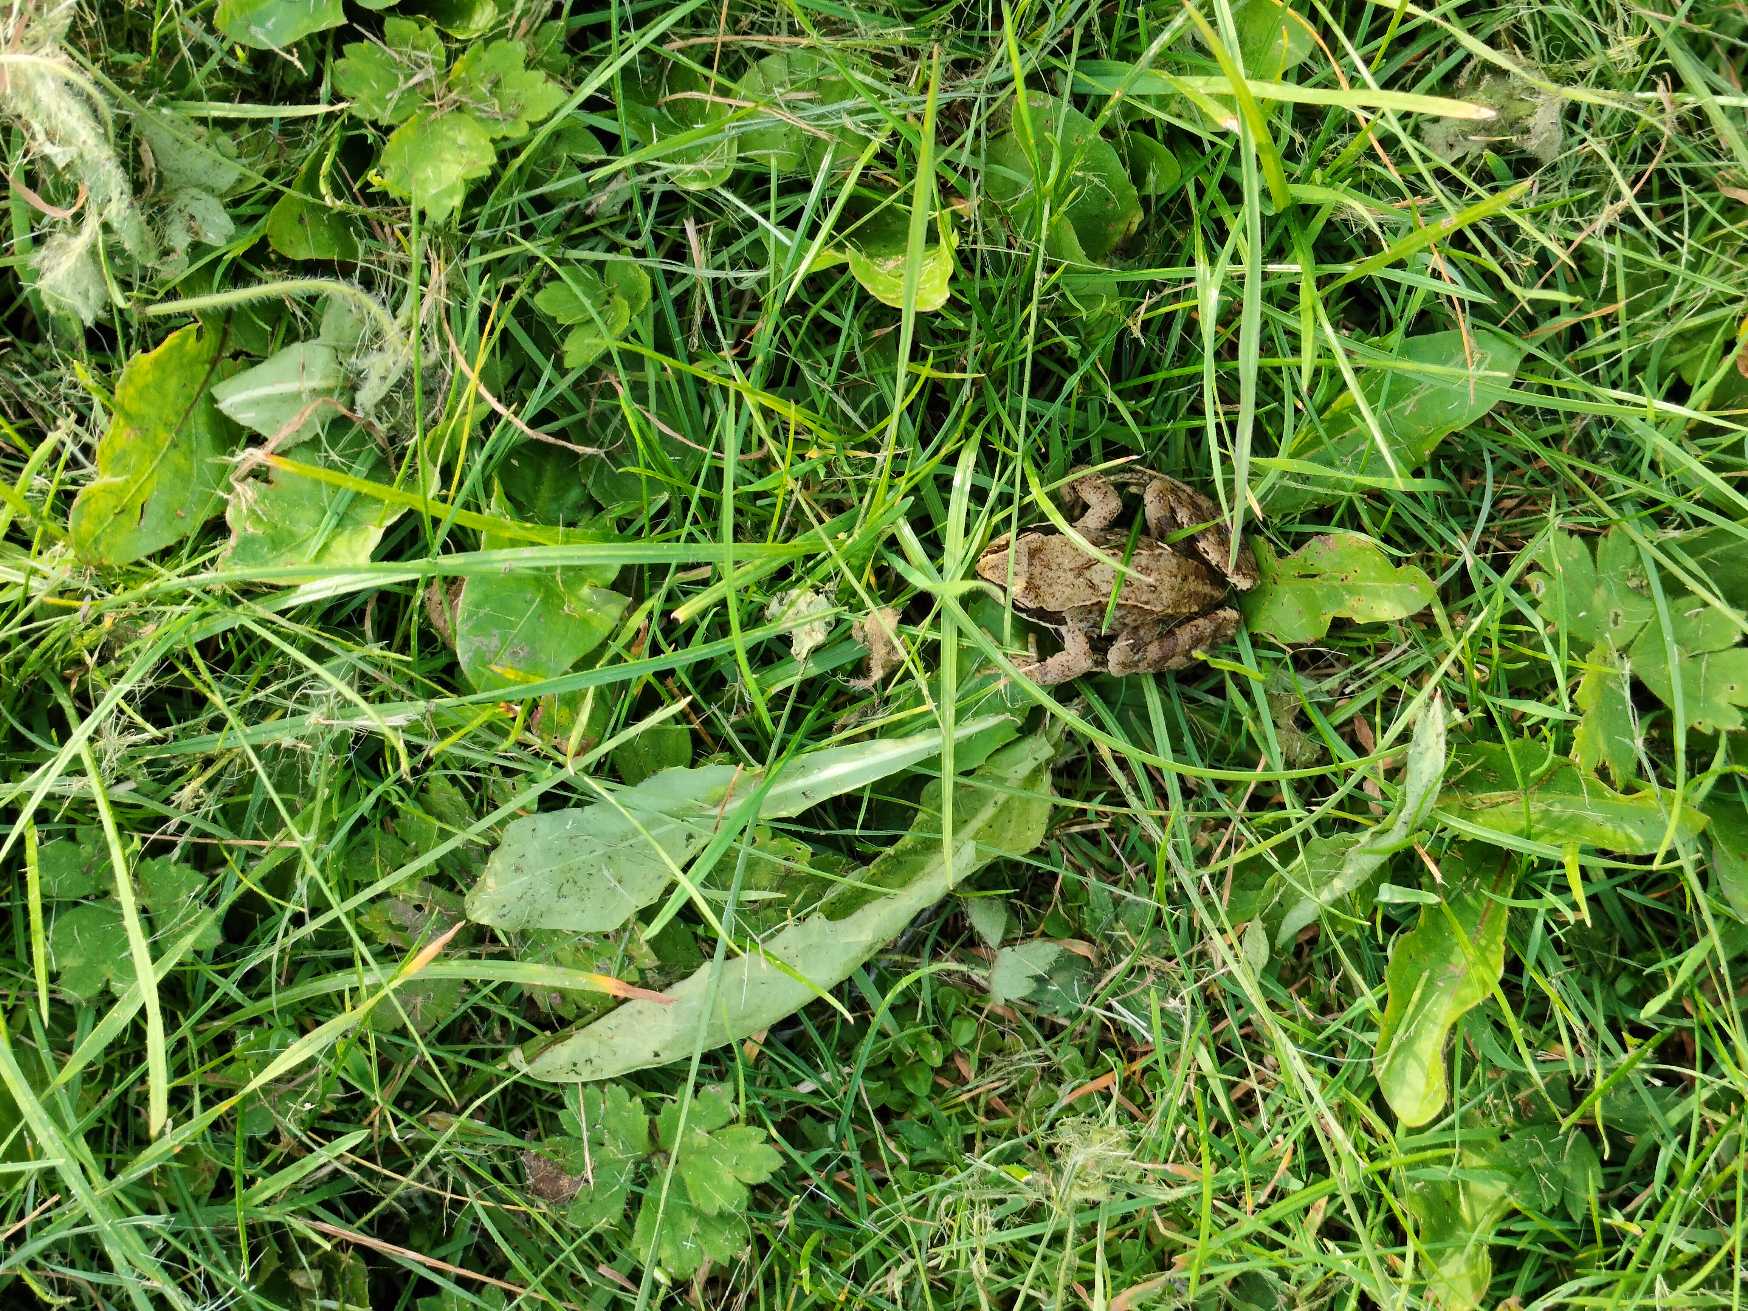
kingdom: Animalia
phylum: Chordata
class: Amphibia
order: Anura
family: Ranidae
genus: Rana
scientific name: Rana temporaria
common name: Butsnudet frø
